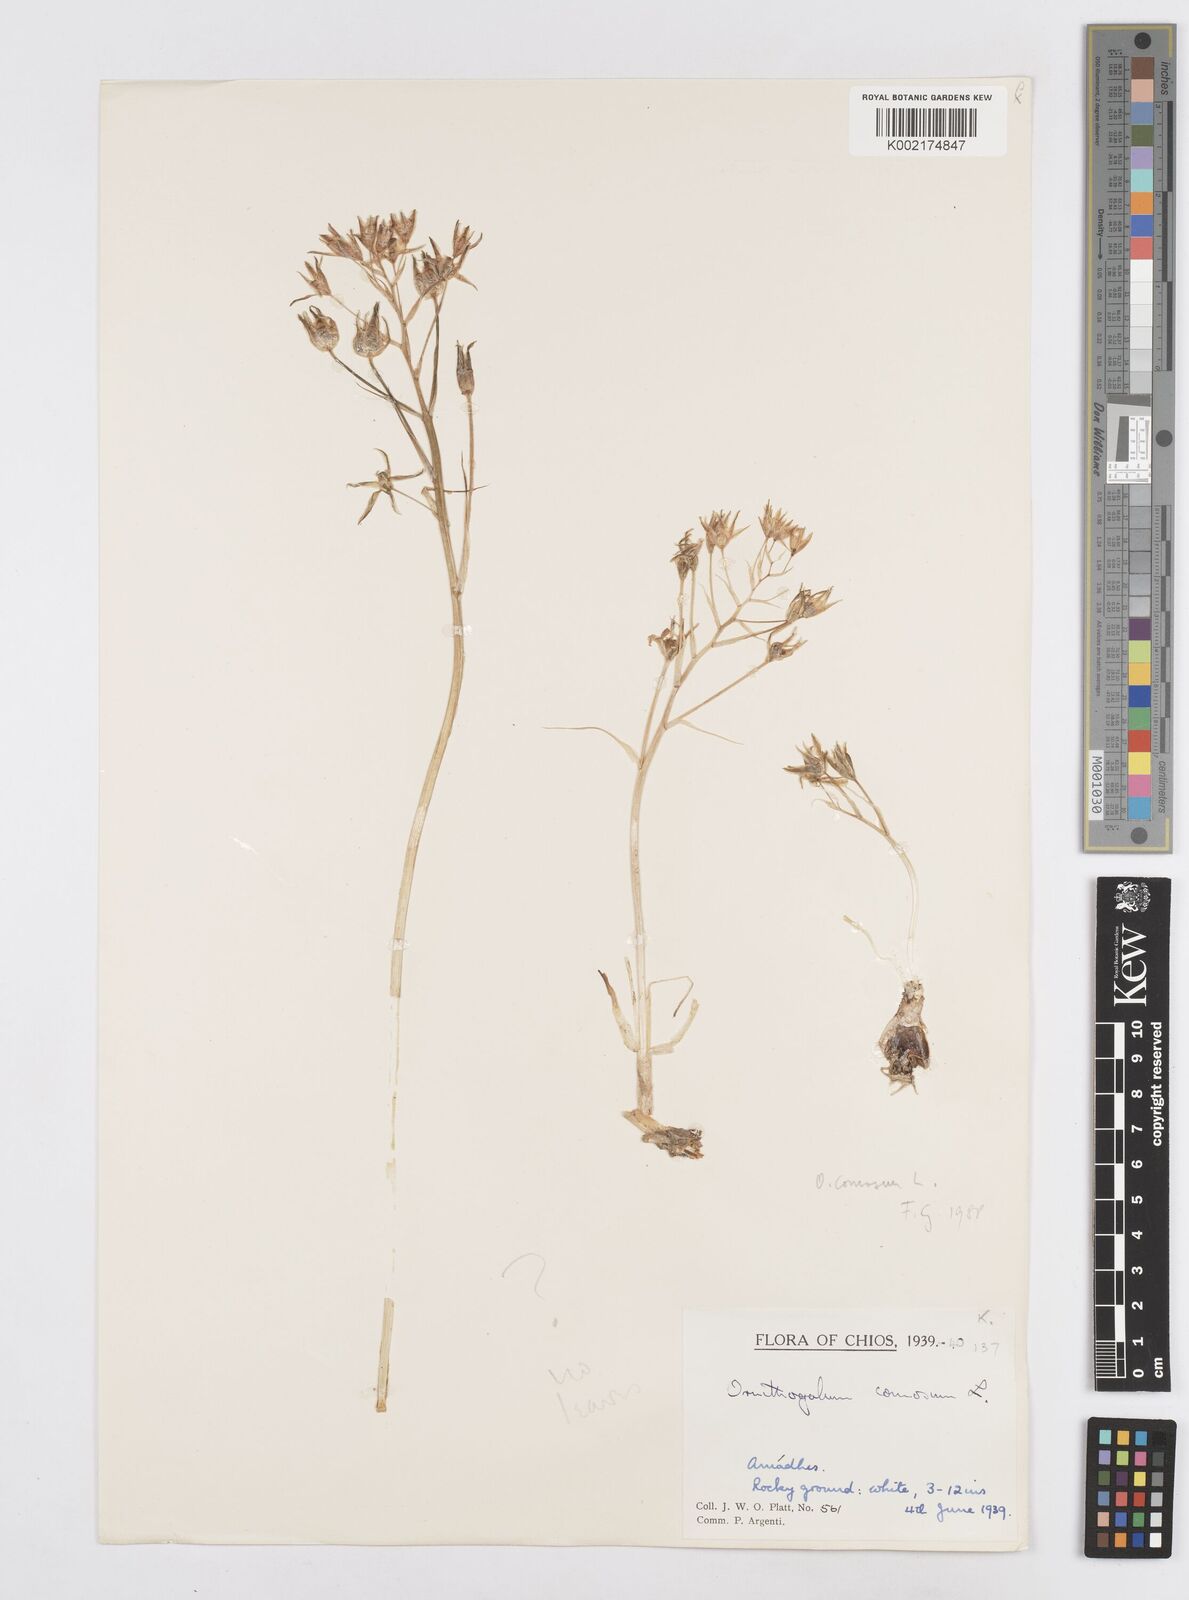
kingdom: Plantae
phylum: Tracheophyta
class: Liliopsida
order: Asparagales
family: Asparagaceae
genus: Ornithogalum
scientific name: Ornithogalum comosum
